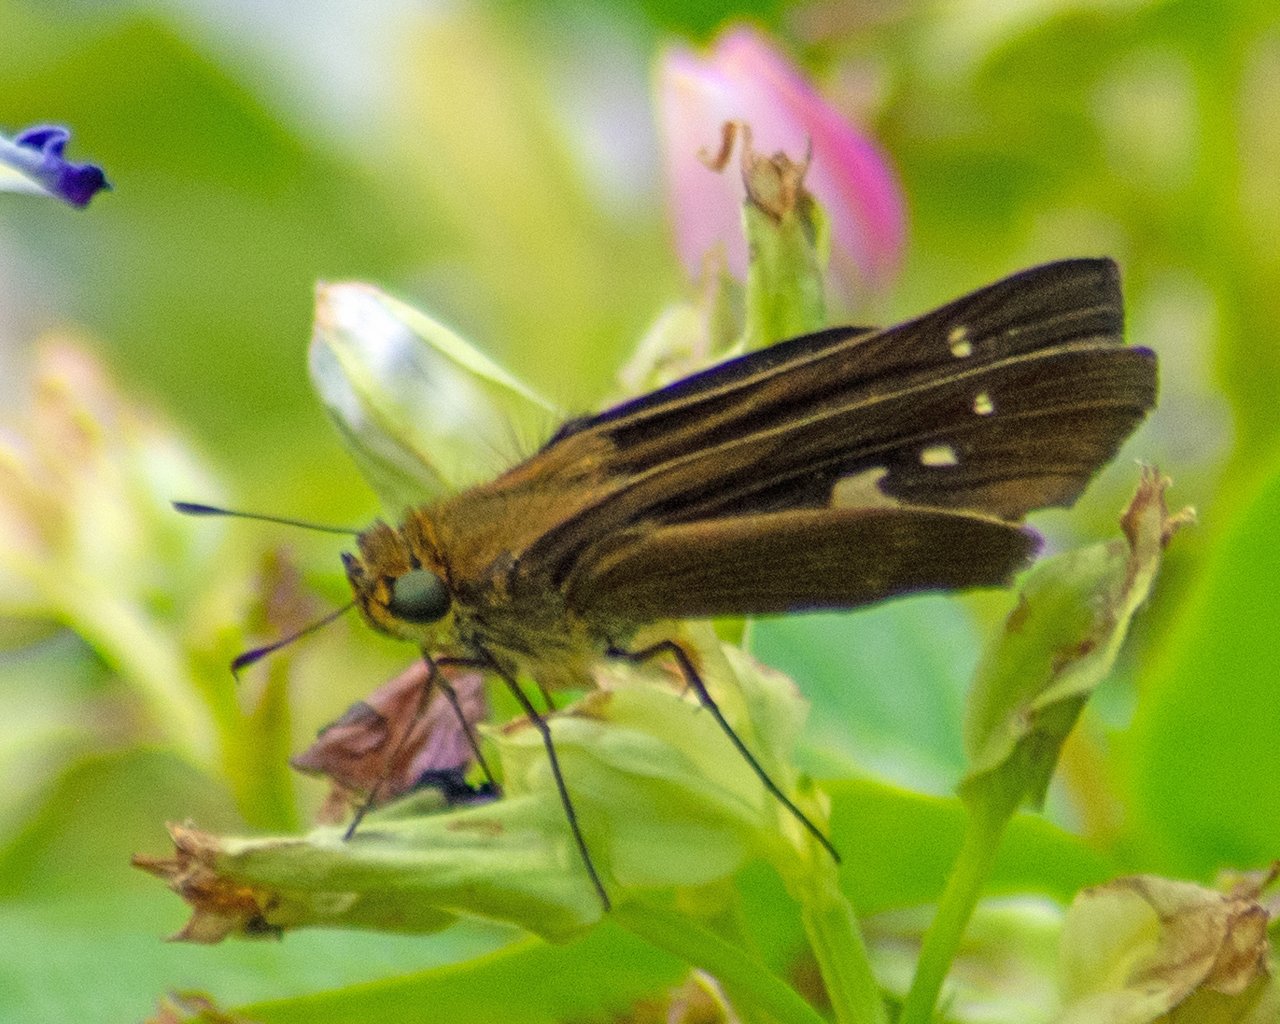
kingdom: Animalia
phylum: Arthropoda
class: Insecta
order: Lepidoptera
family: Hesperiidae
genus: Panoquina
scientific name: Panoquina ocola
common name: Ocola Skipper
